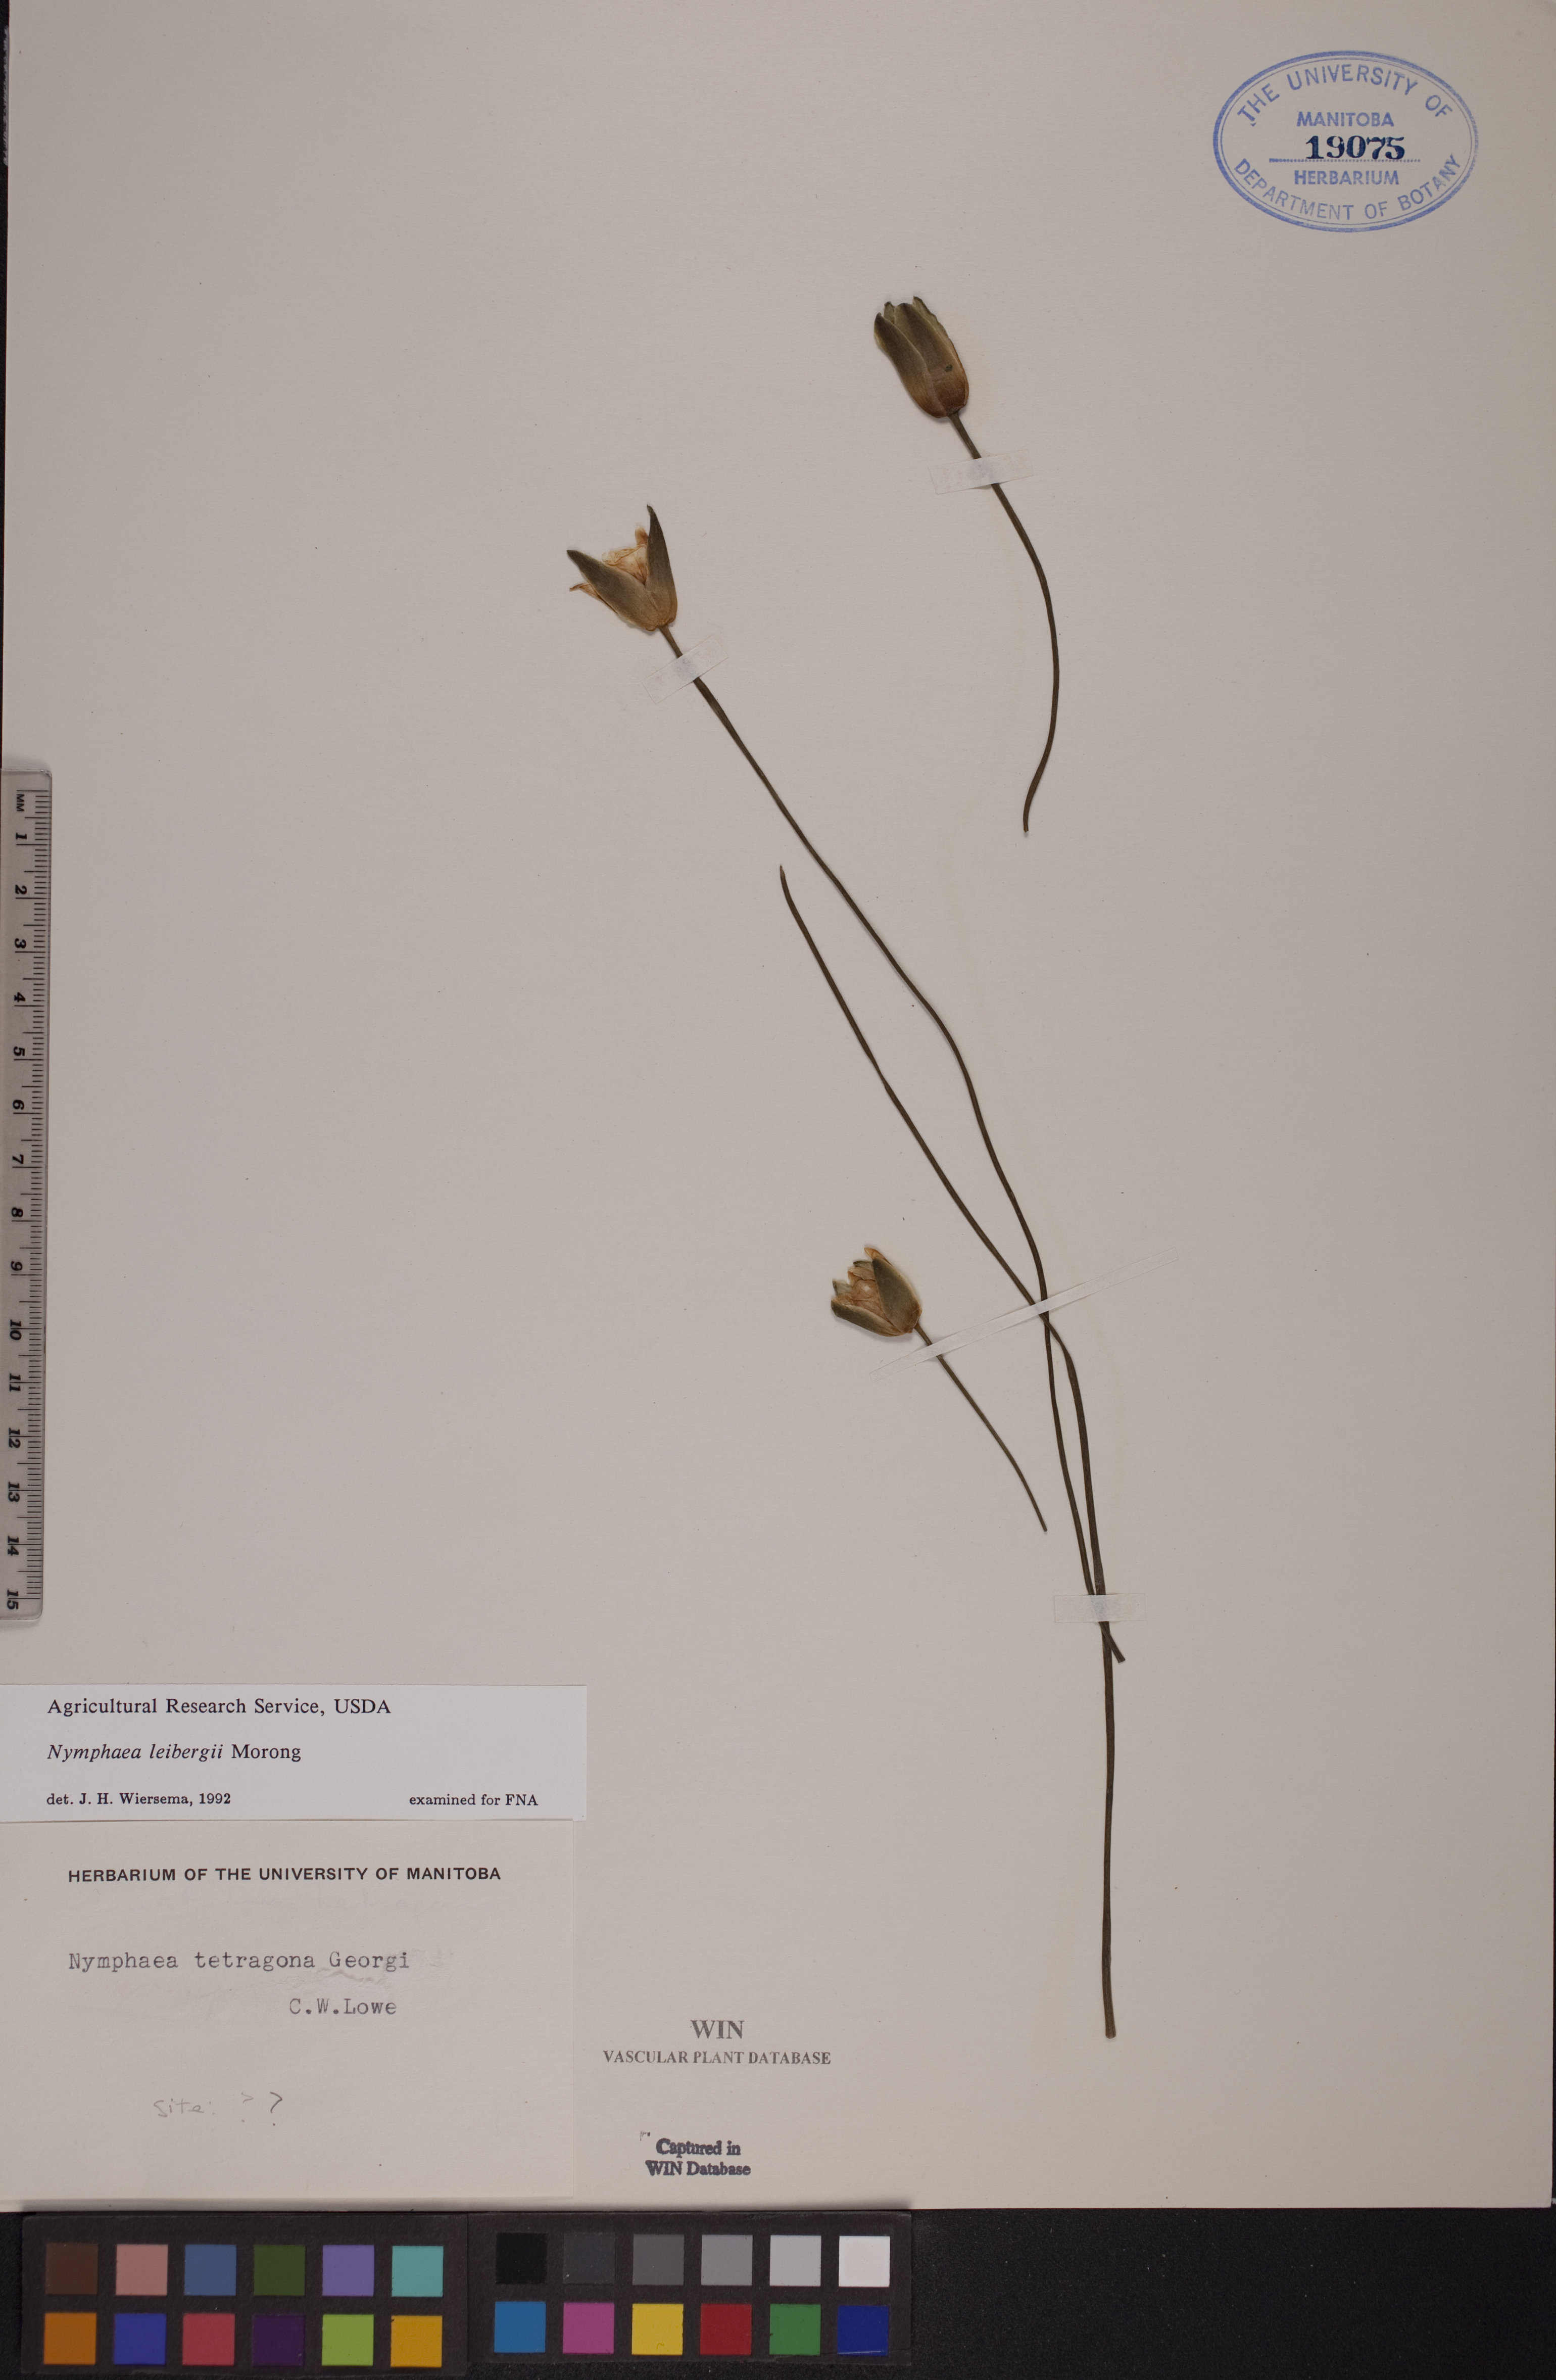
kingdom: Plantae
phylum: Tracheophyta
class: Magnoliopsida
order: Nymphaeales
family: Nymphaeaceae
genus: Nymphaea
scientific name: Nymphaea leibergii
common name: Dwarf water-lily
